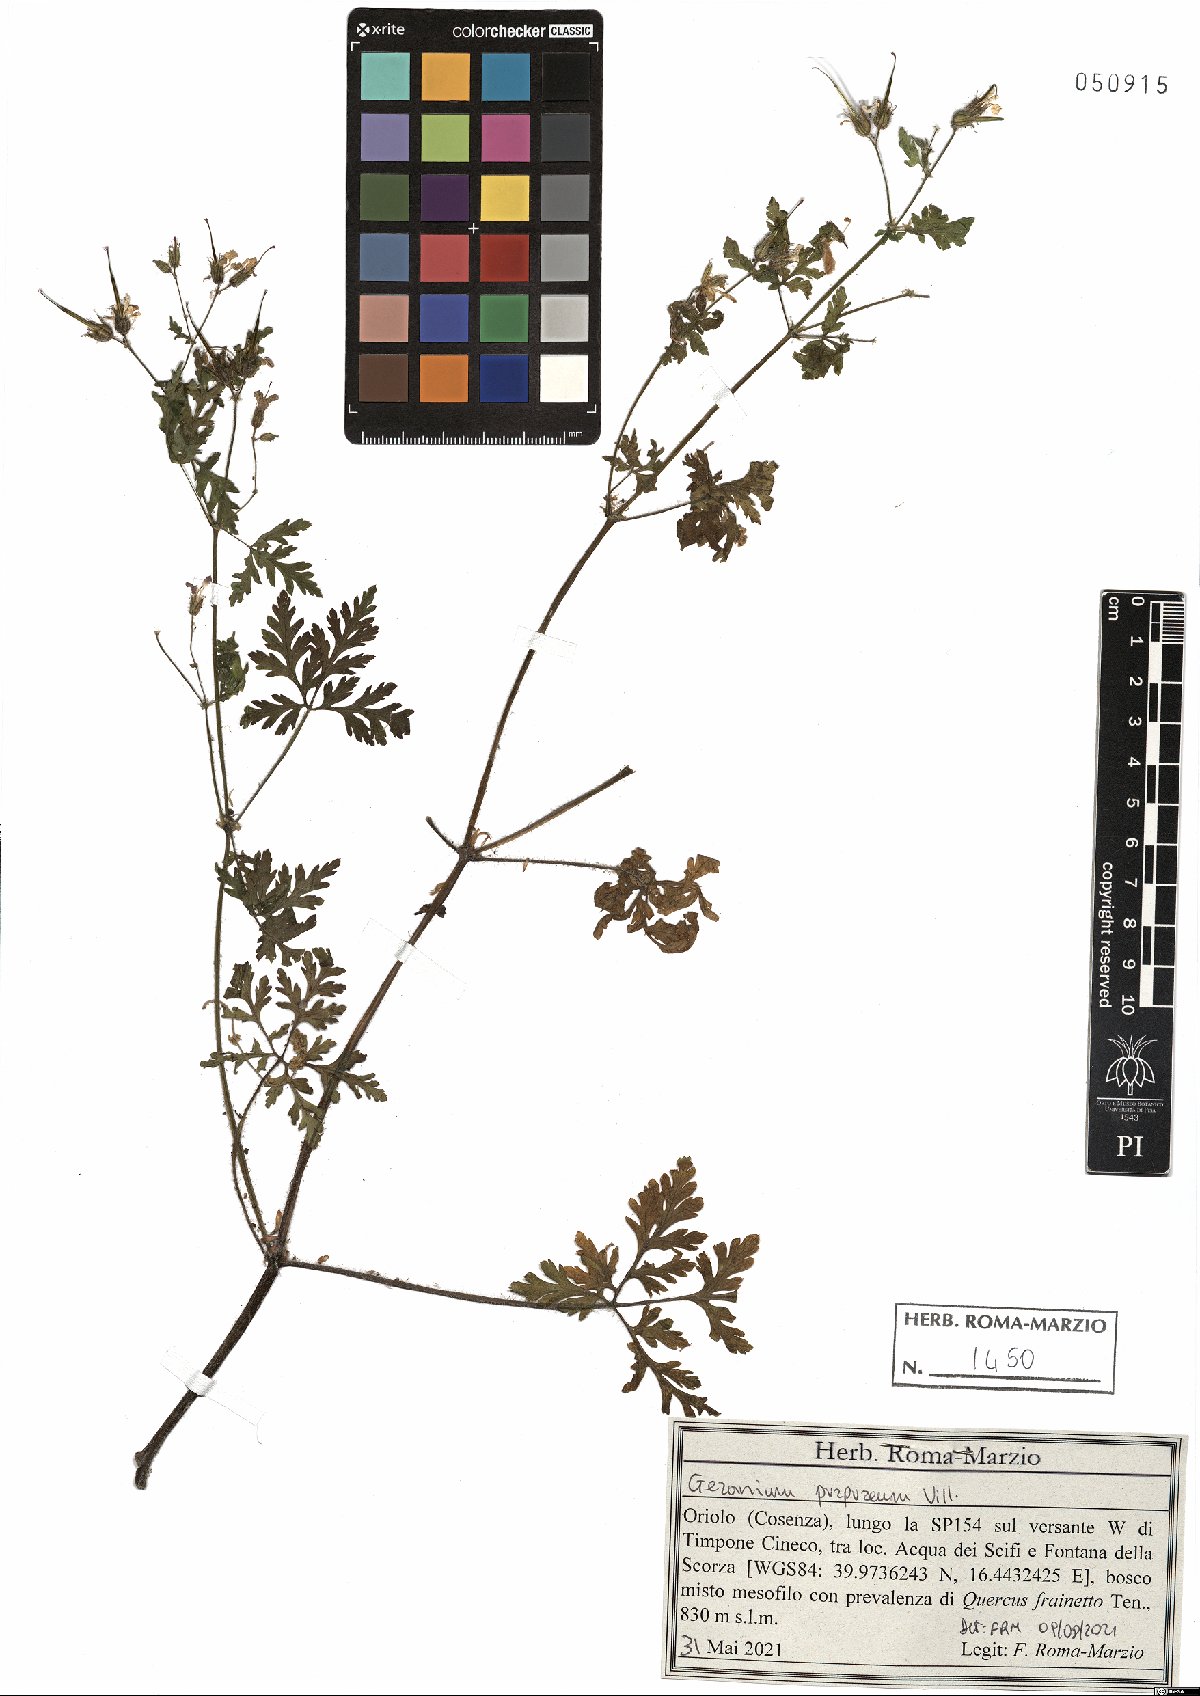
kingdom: Plantae
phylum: Tracheophyta
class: Magnoliopsida
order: Geraniales
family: Geraniaceae
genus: Geranium
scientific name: Geranium purpureum
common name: Little-robin
